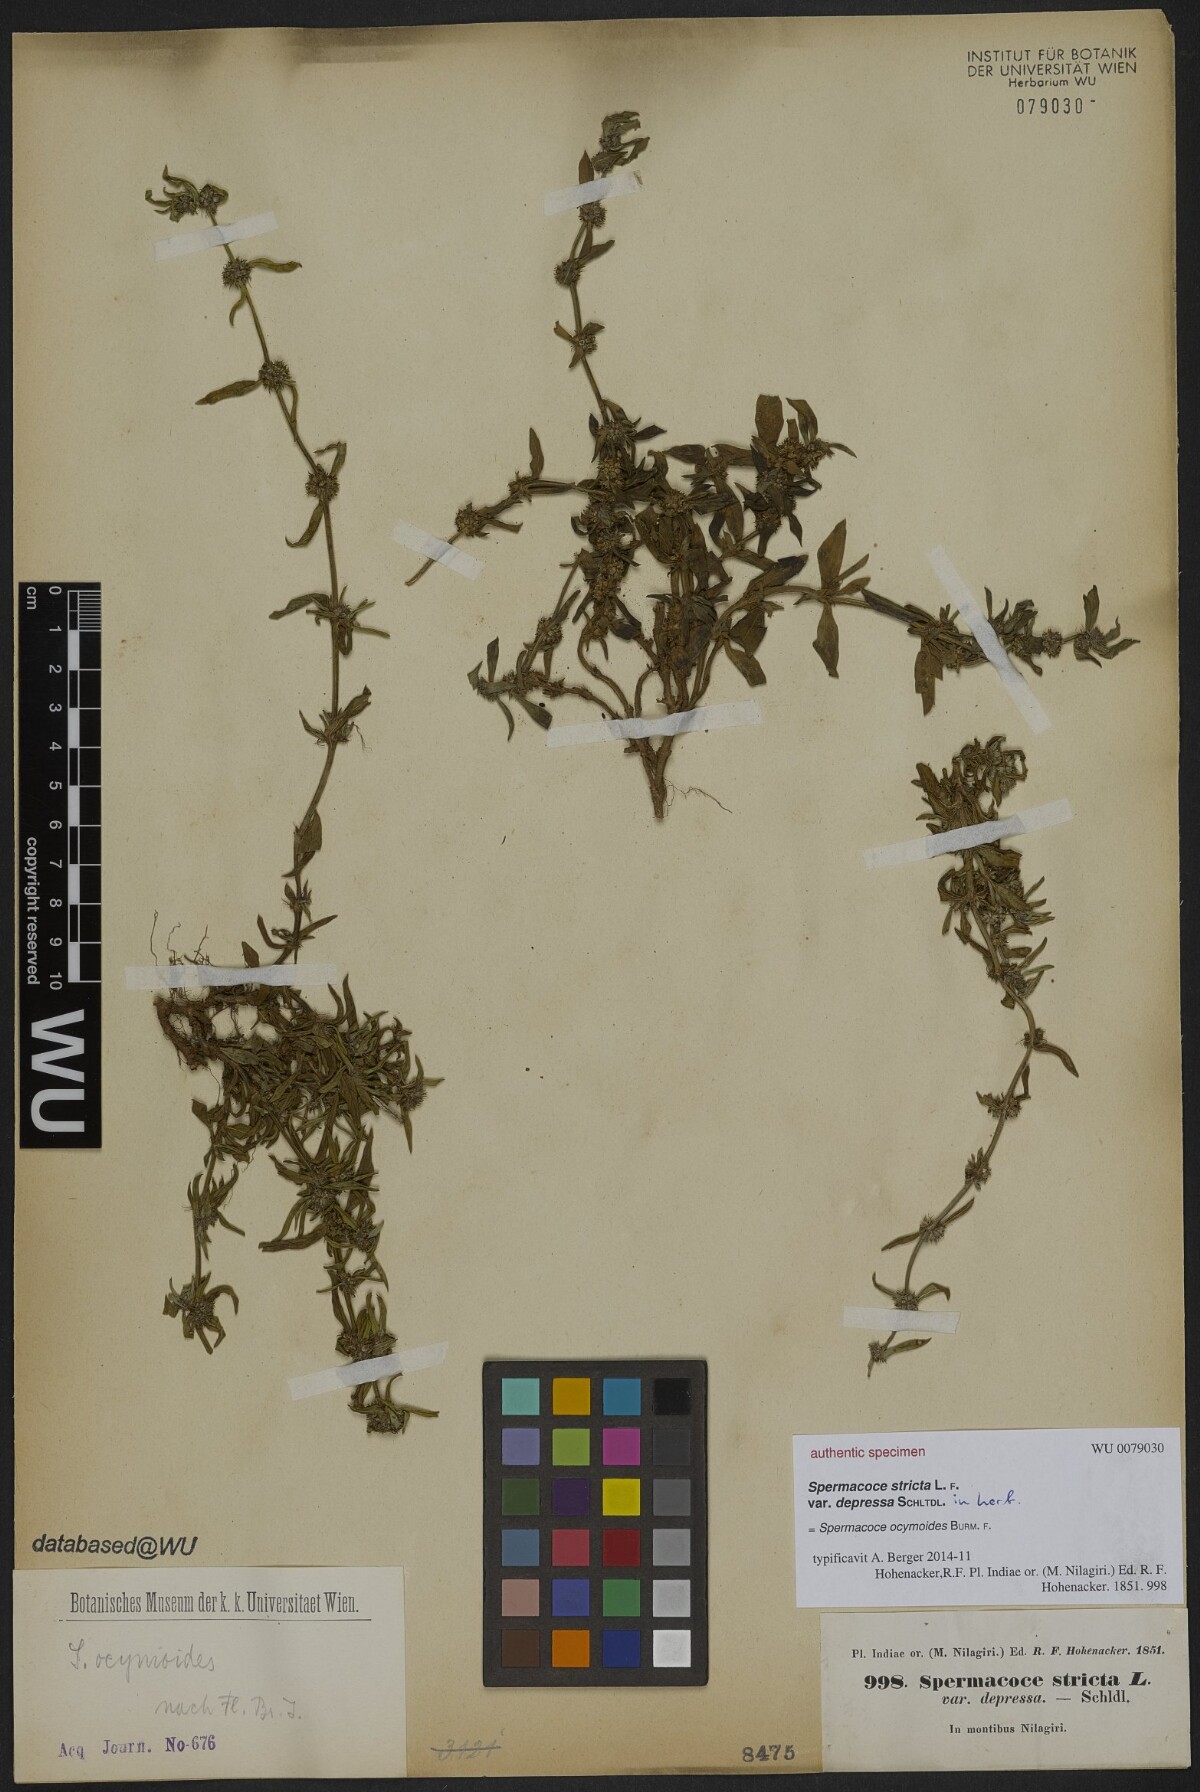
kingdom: Plantae
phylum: Tracheophyta
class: Magnoliopsida
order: Gentianales
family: Rubiaceae
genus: Spermacoce
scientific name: Spermacoce stricta
